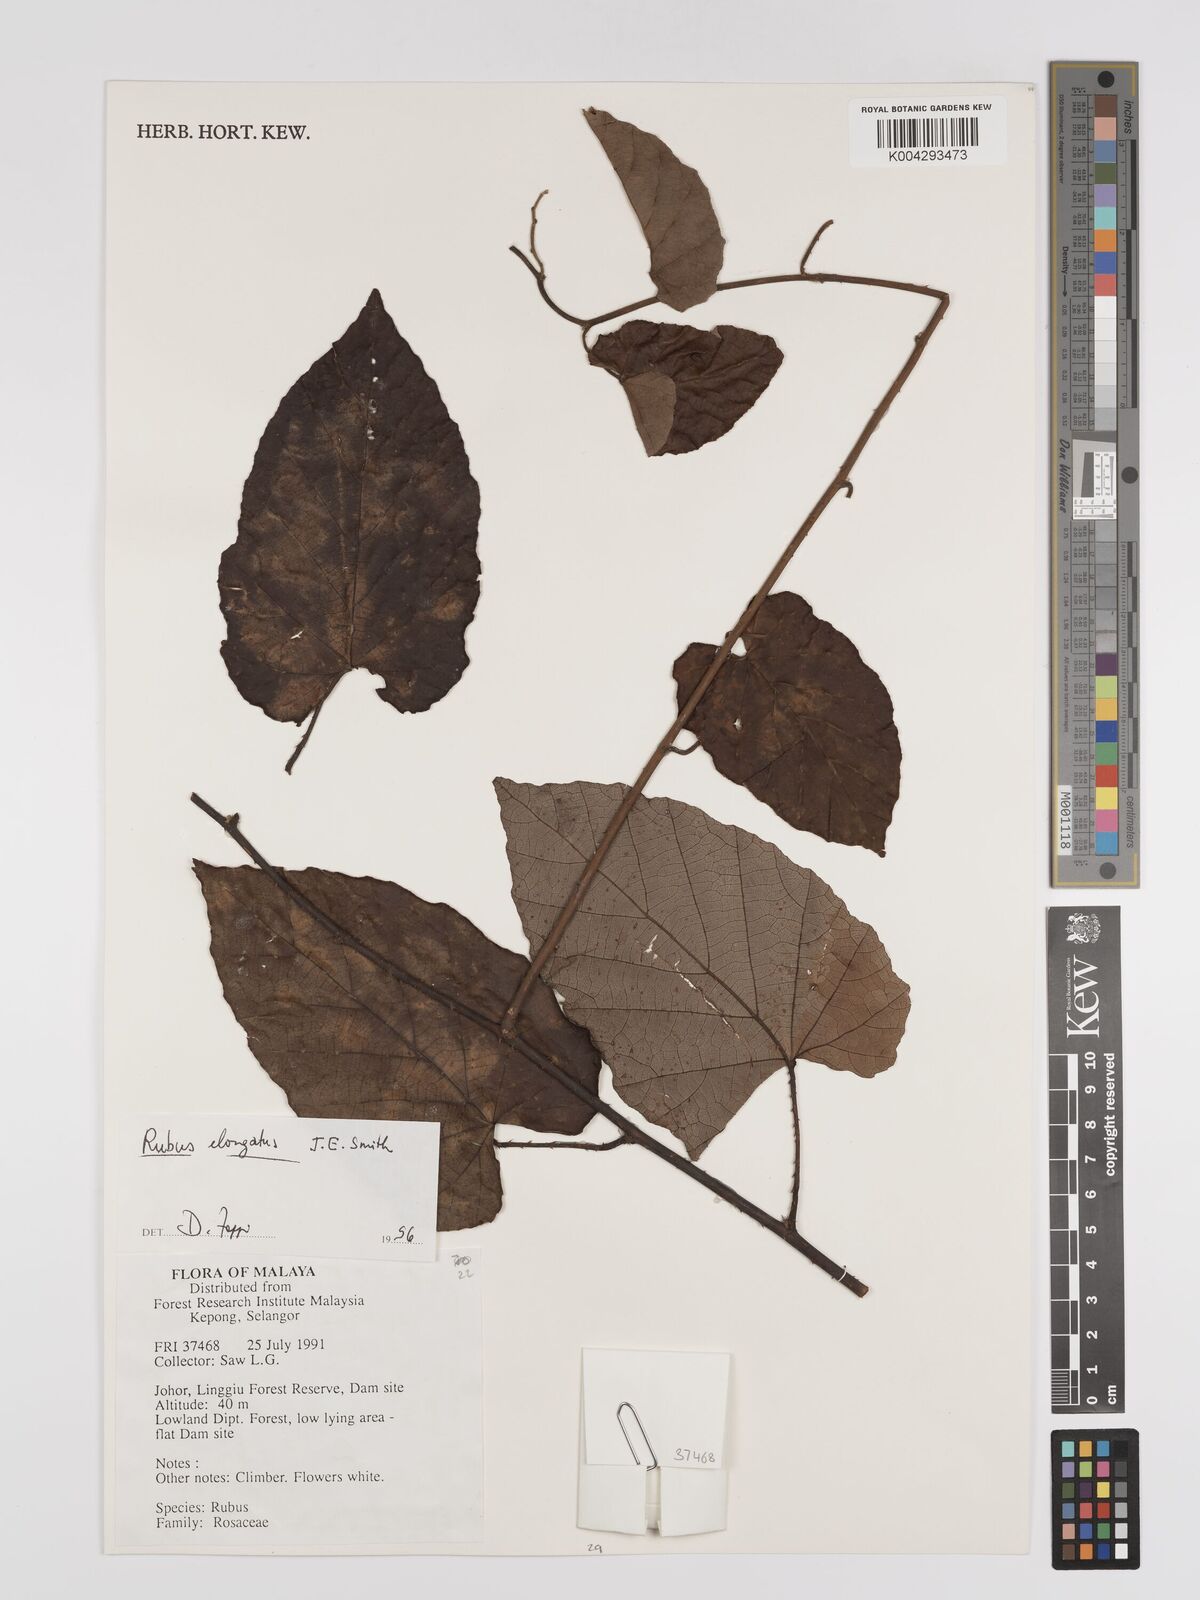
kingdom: Plantae
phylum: Tracheophyta
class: Magnoliopsida
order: Rosales
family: Rosaceae
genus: Rubus
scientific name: Rubus
